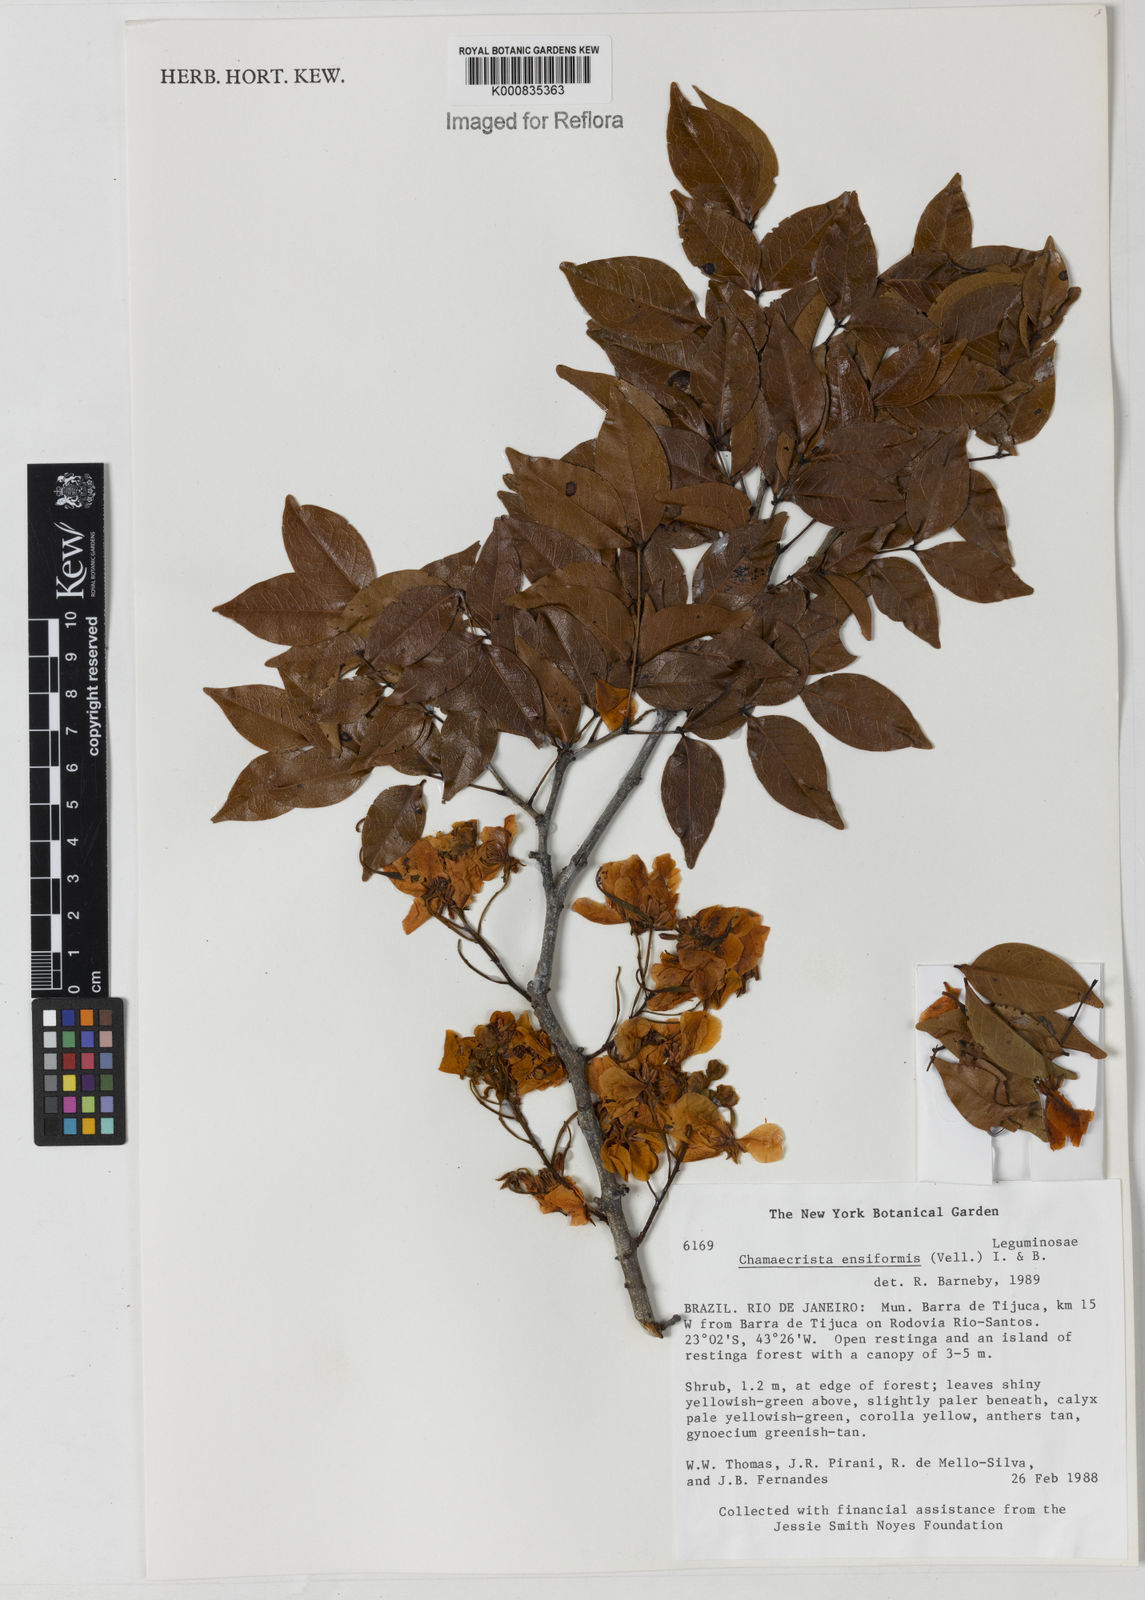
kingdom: Plantae
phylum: Tracheophyta
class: Magnoliopsida
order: Fabales
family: Fabaceae
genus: Chamaecrista
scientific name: Chamaecrista ensiformis
